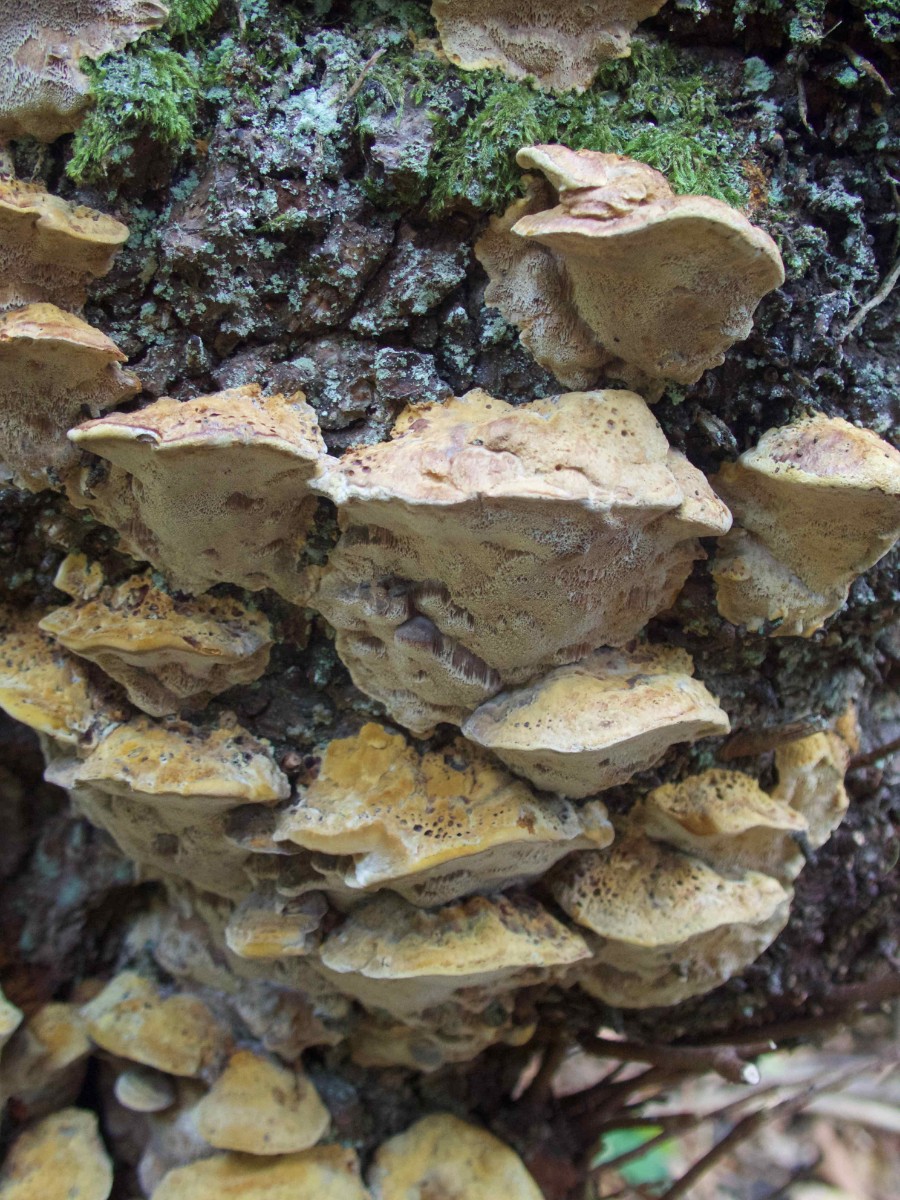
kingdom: Fungi
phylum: Basidiomycota
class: Agaricomycetes
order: Hymenochaetales
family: Hymenochaetaceae
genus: Xanthoporia
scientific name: Xanthoporia radiata
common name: elle-spejlporesvamp
